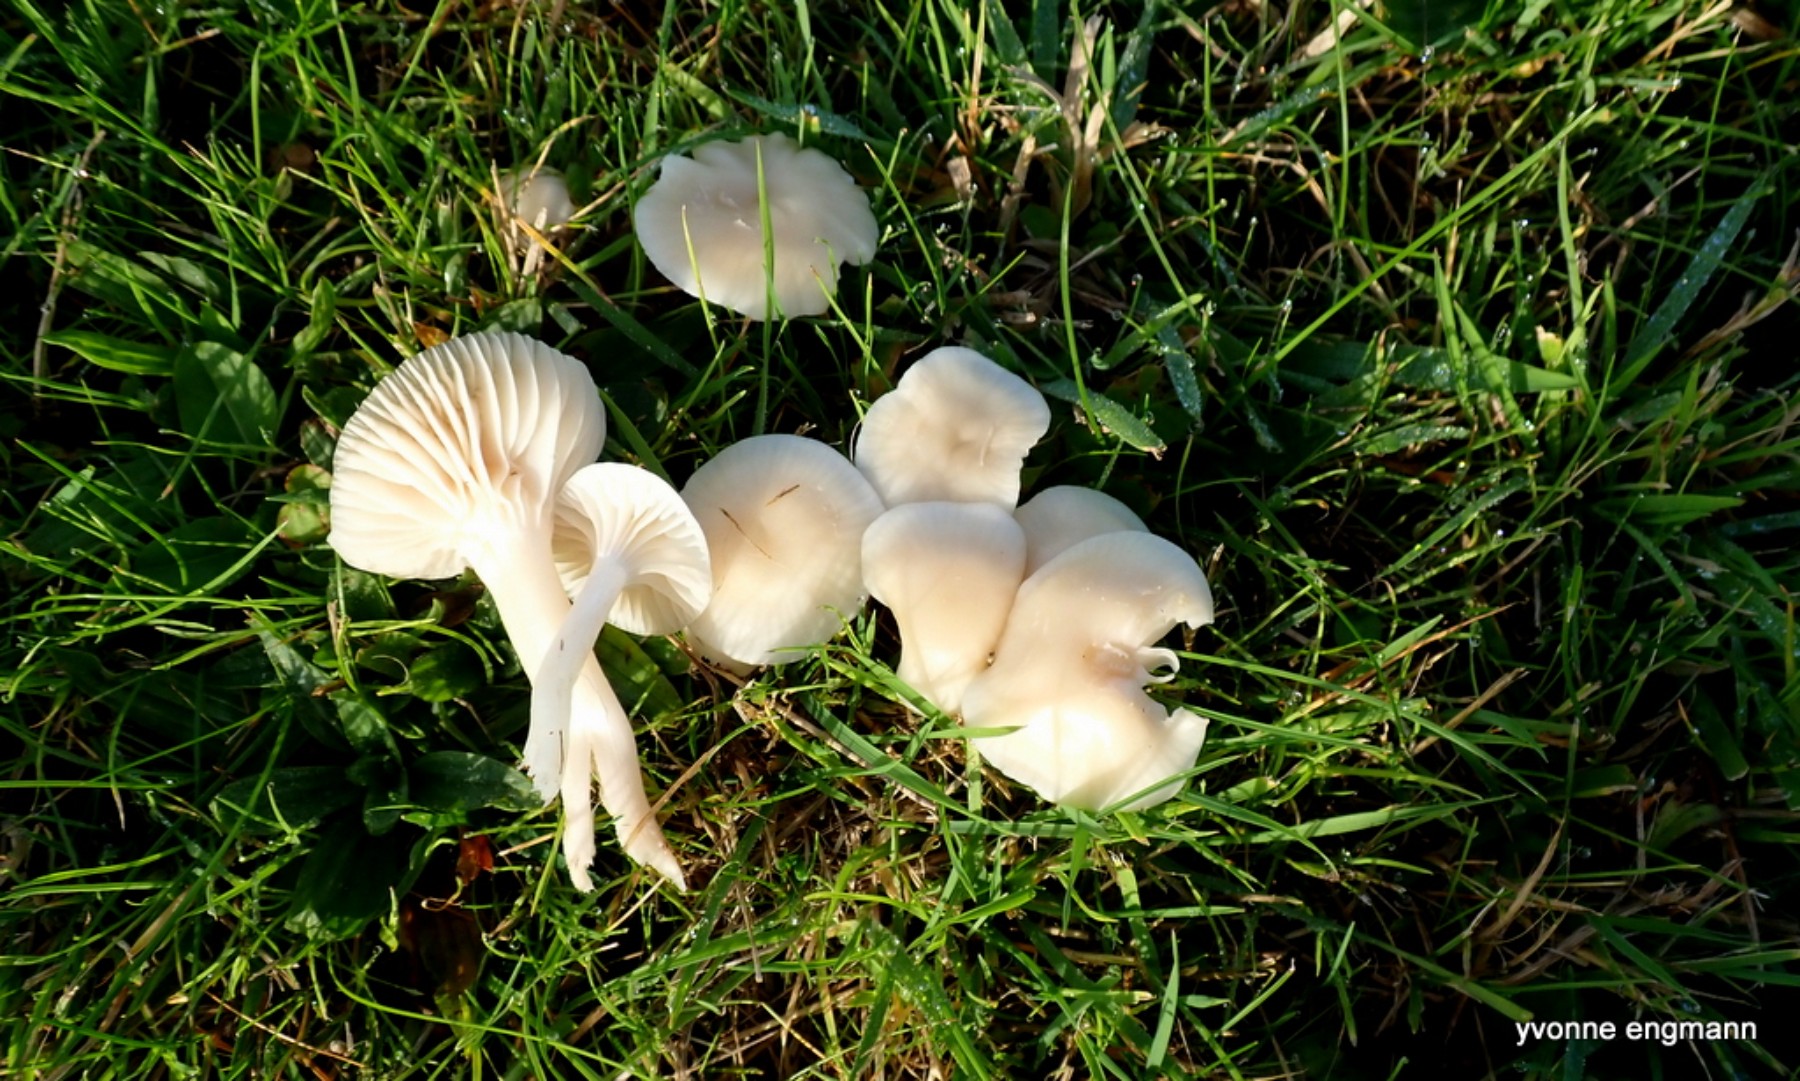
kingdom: Fungi
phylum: Basidiomycota
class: Agaricomycetes
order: Agaricales
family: Hygrophoraceae
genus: Cuphophyllus
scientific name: Cuphophyllus
